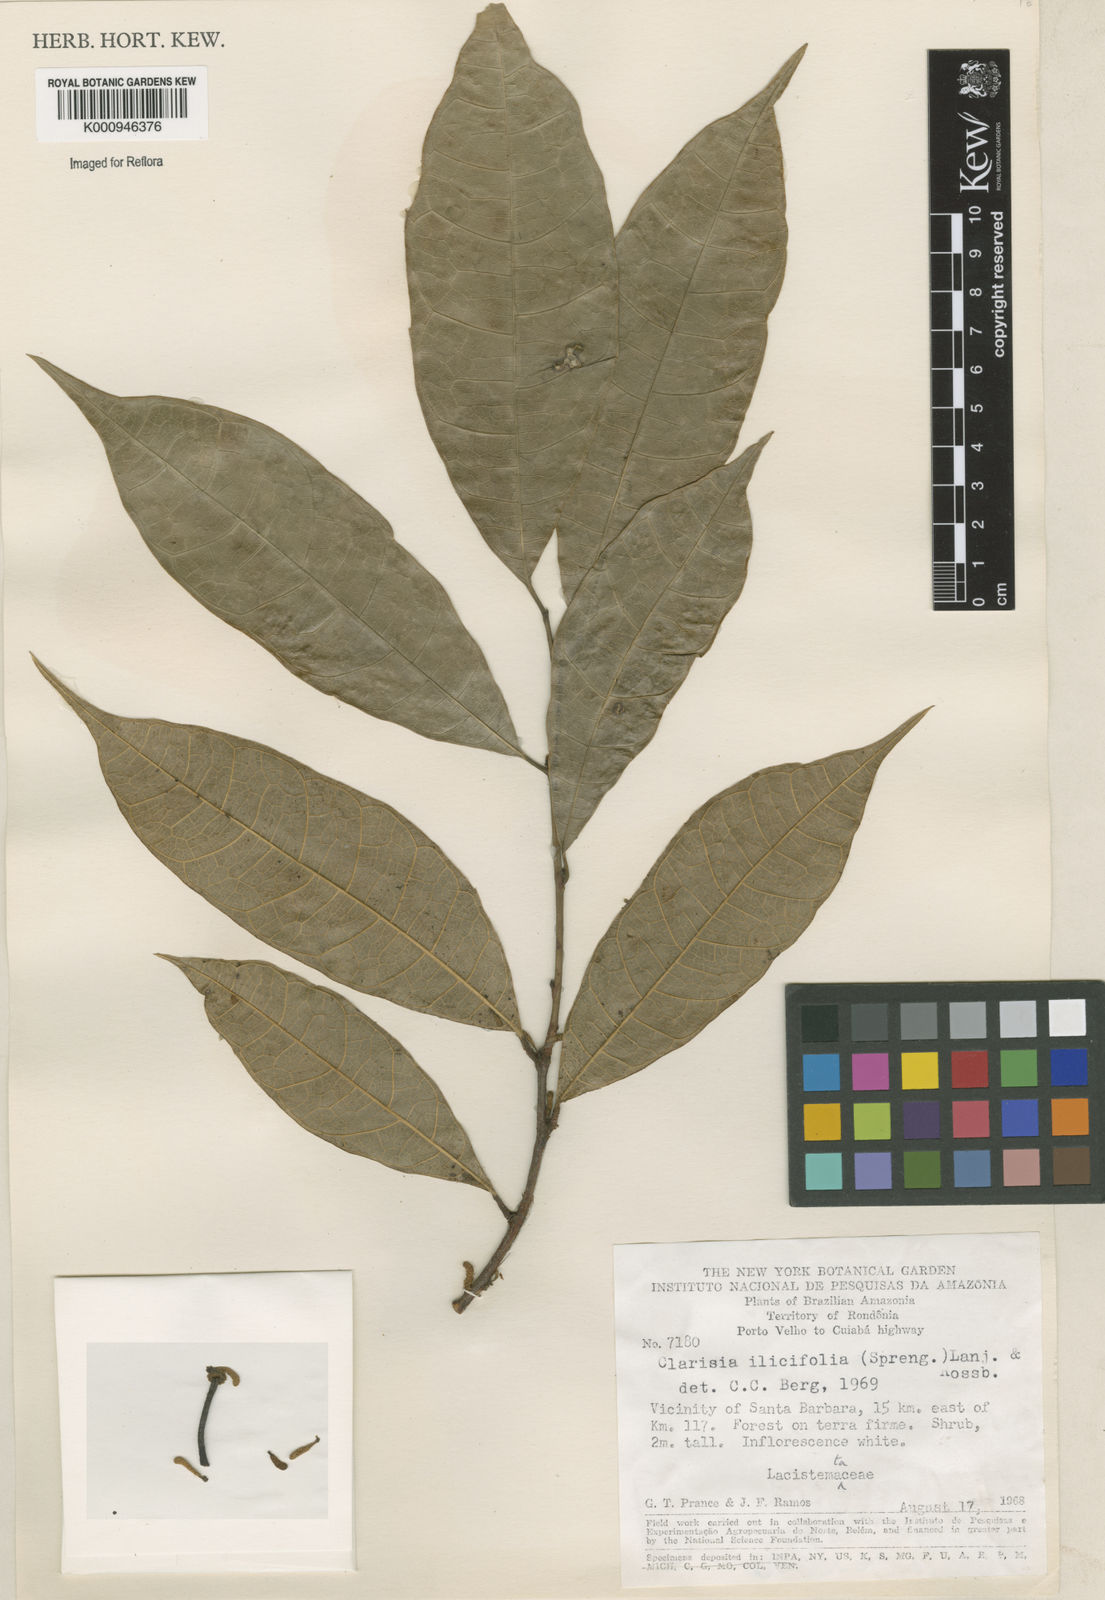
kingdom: Plantae
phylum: Tracheophyta
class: Magnoliopsida
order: Rosales
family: Moraceae
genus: Clarisia
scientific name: Clarisia ilicifolia
